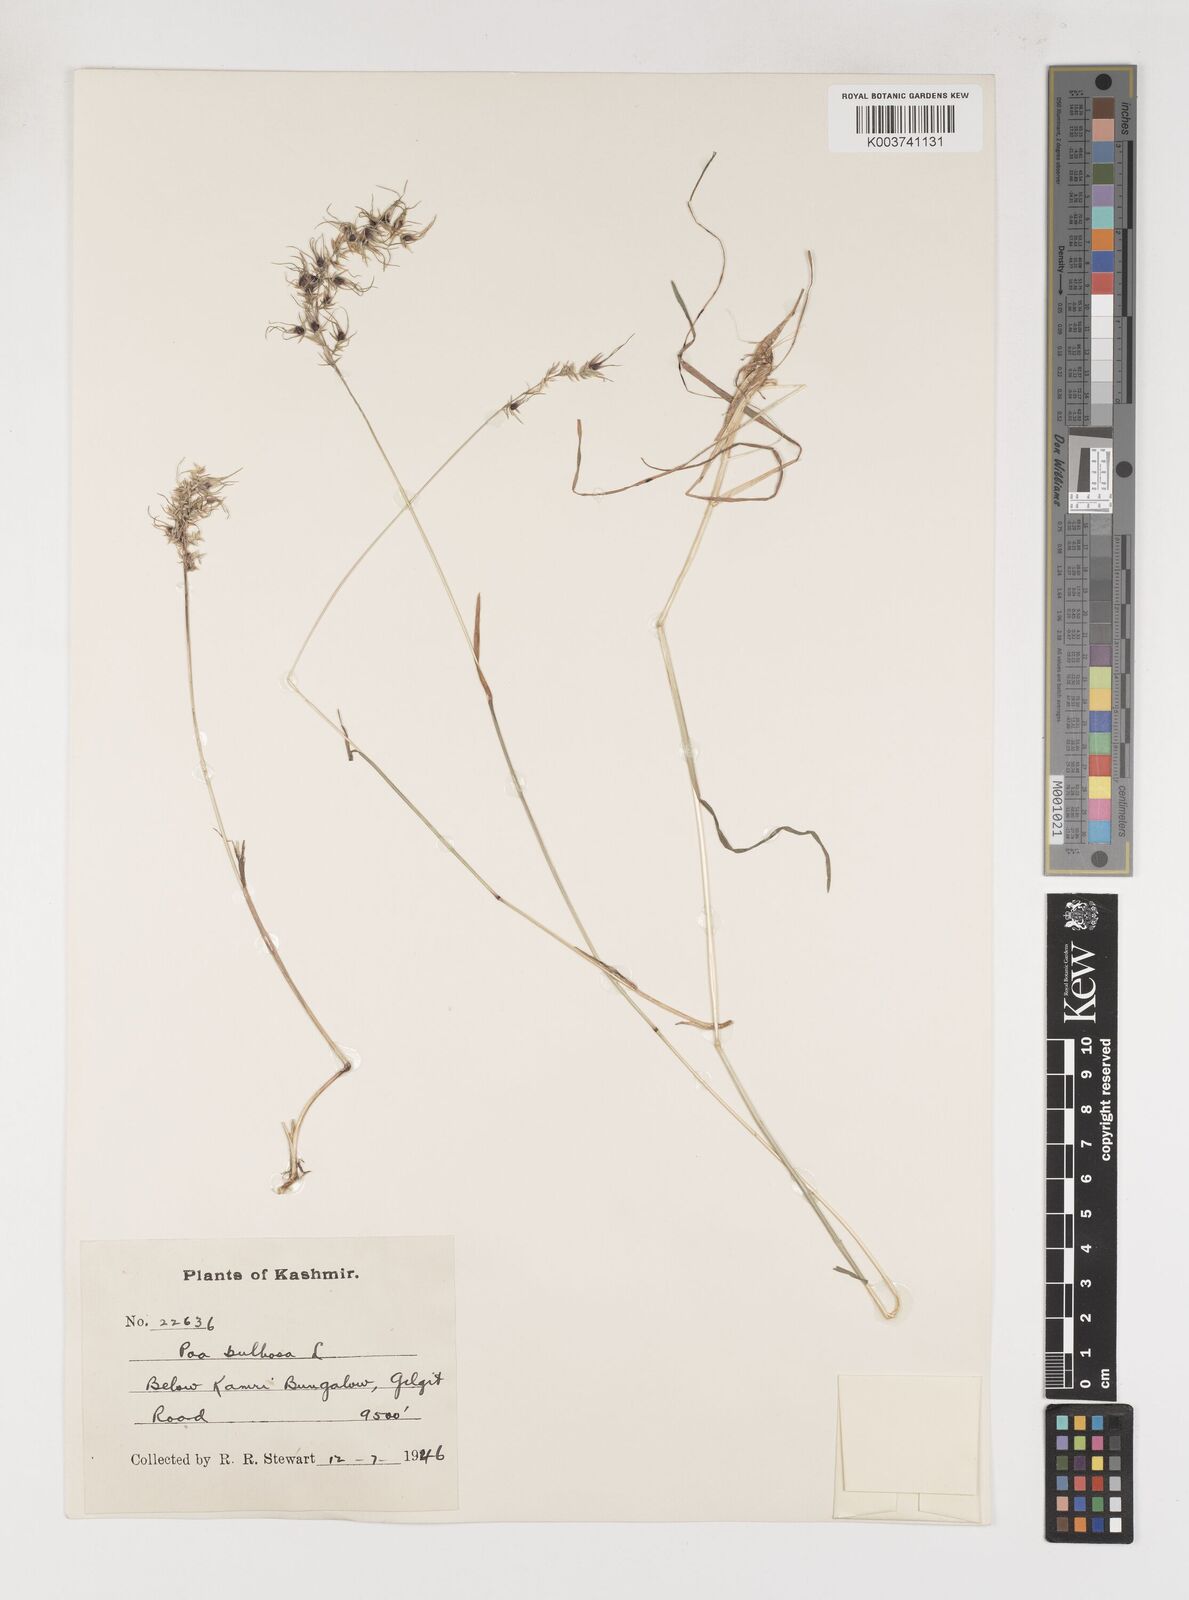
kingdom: Plantae
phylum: Tracheophyta
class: Liliopsida
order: Poales
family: Poaceae
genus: Poa
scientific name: Poa bulbosa
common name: Bulbous bluegrass
